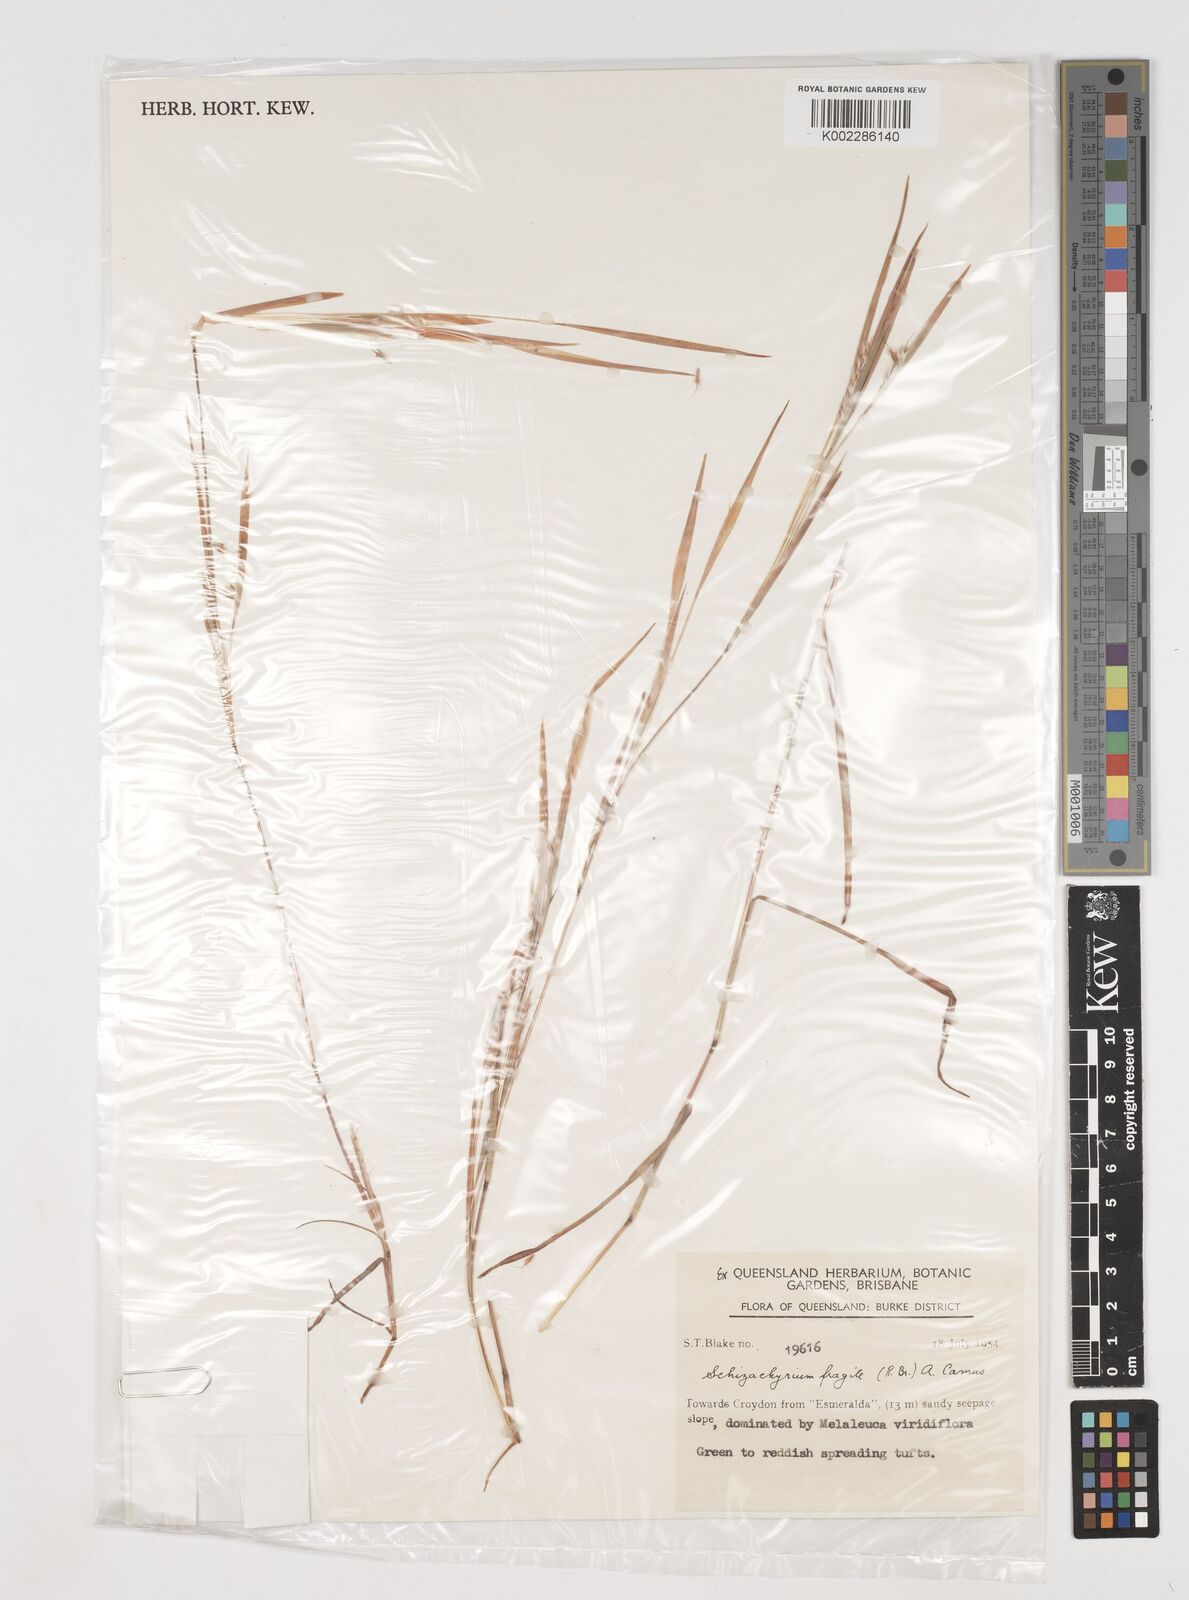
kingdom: Plantae
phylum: Tracheophyta
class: Liliopsida
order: Poales
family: Poaceae
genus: Schizachyrium
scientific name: Schizachyrium fragile
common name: Red spathe grass
